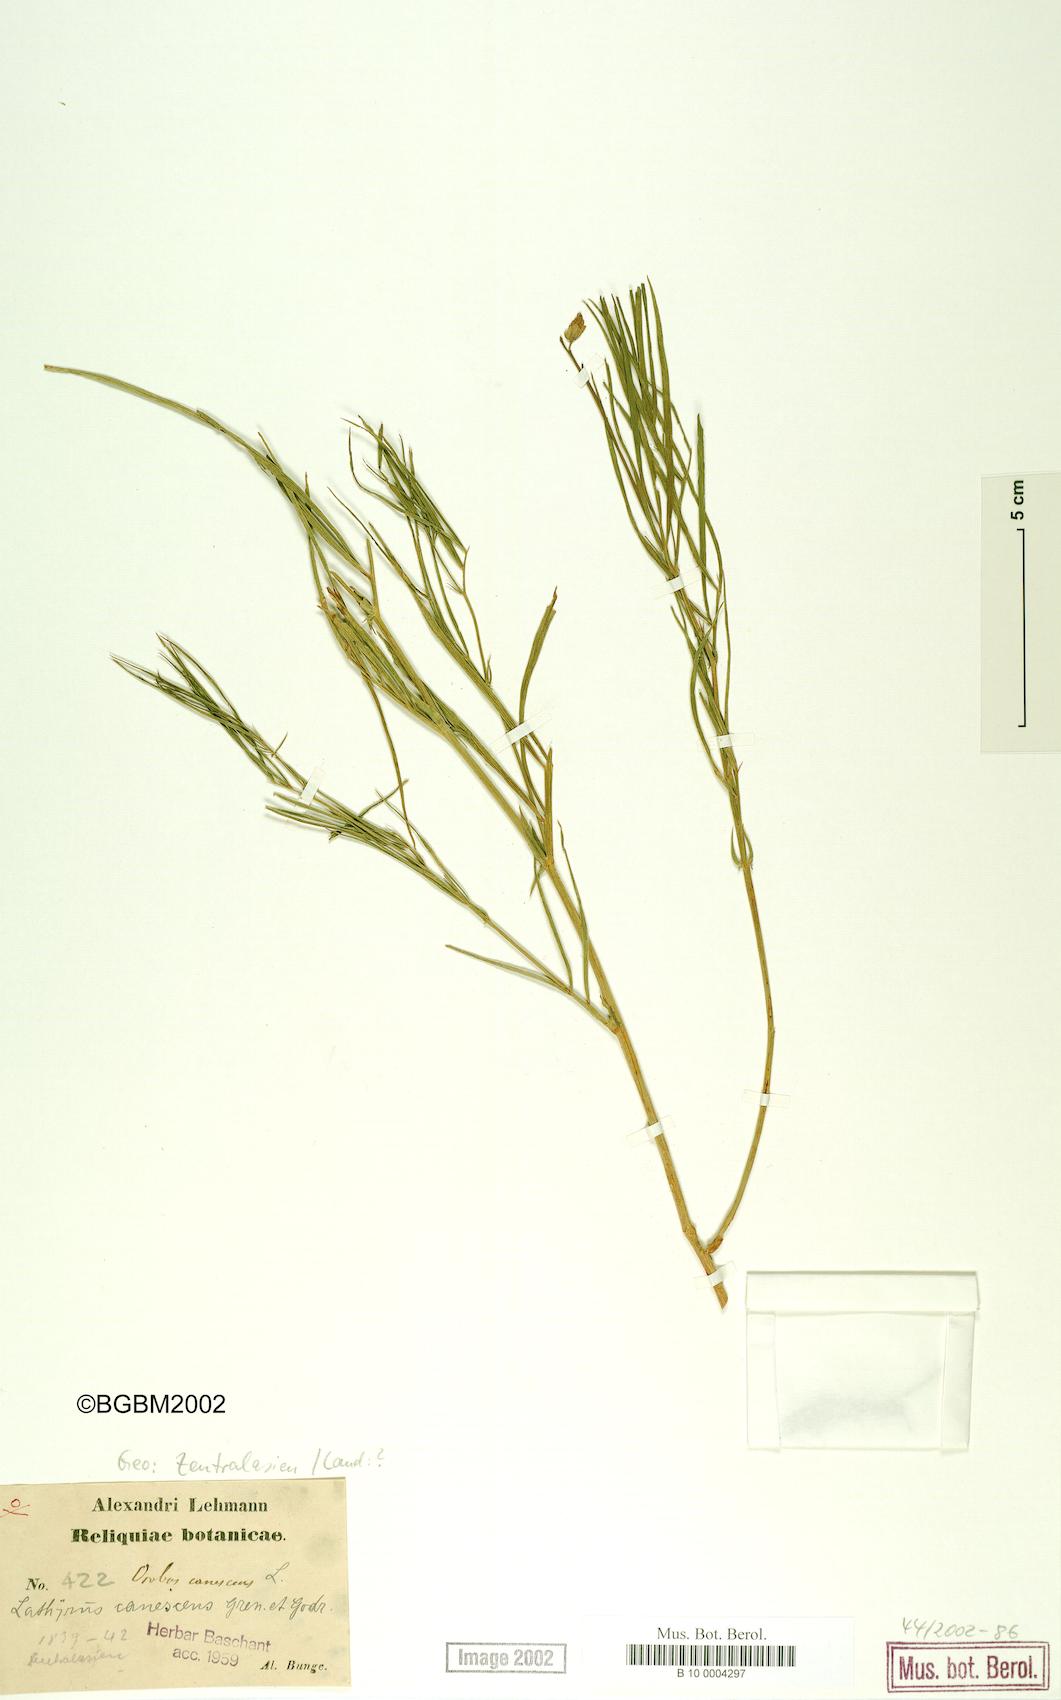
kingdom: Plantae
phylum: Tracheophyta
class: Magnoliopsida
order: Fabales
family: Fabaceae
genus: Lathyrus
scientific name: Lathyrus filiformis
